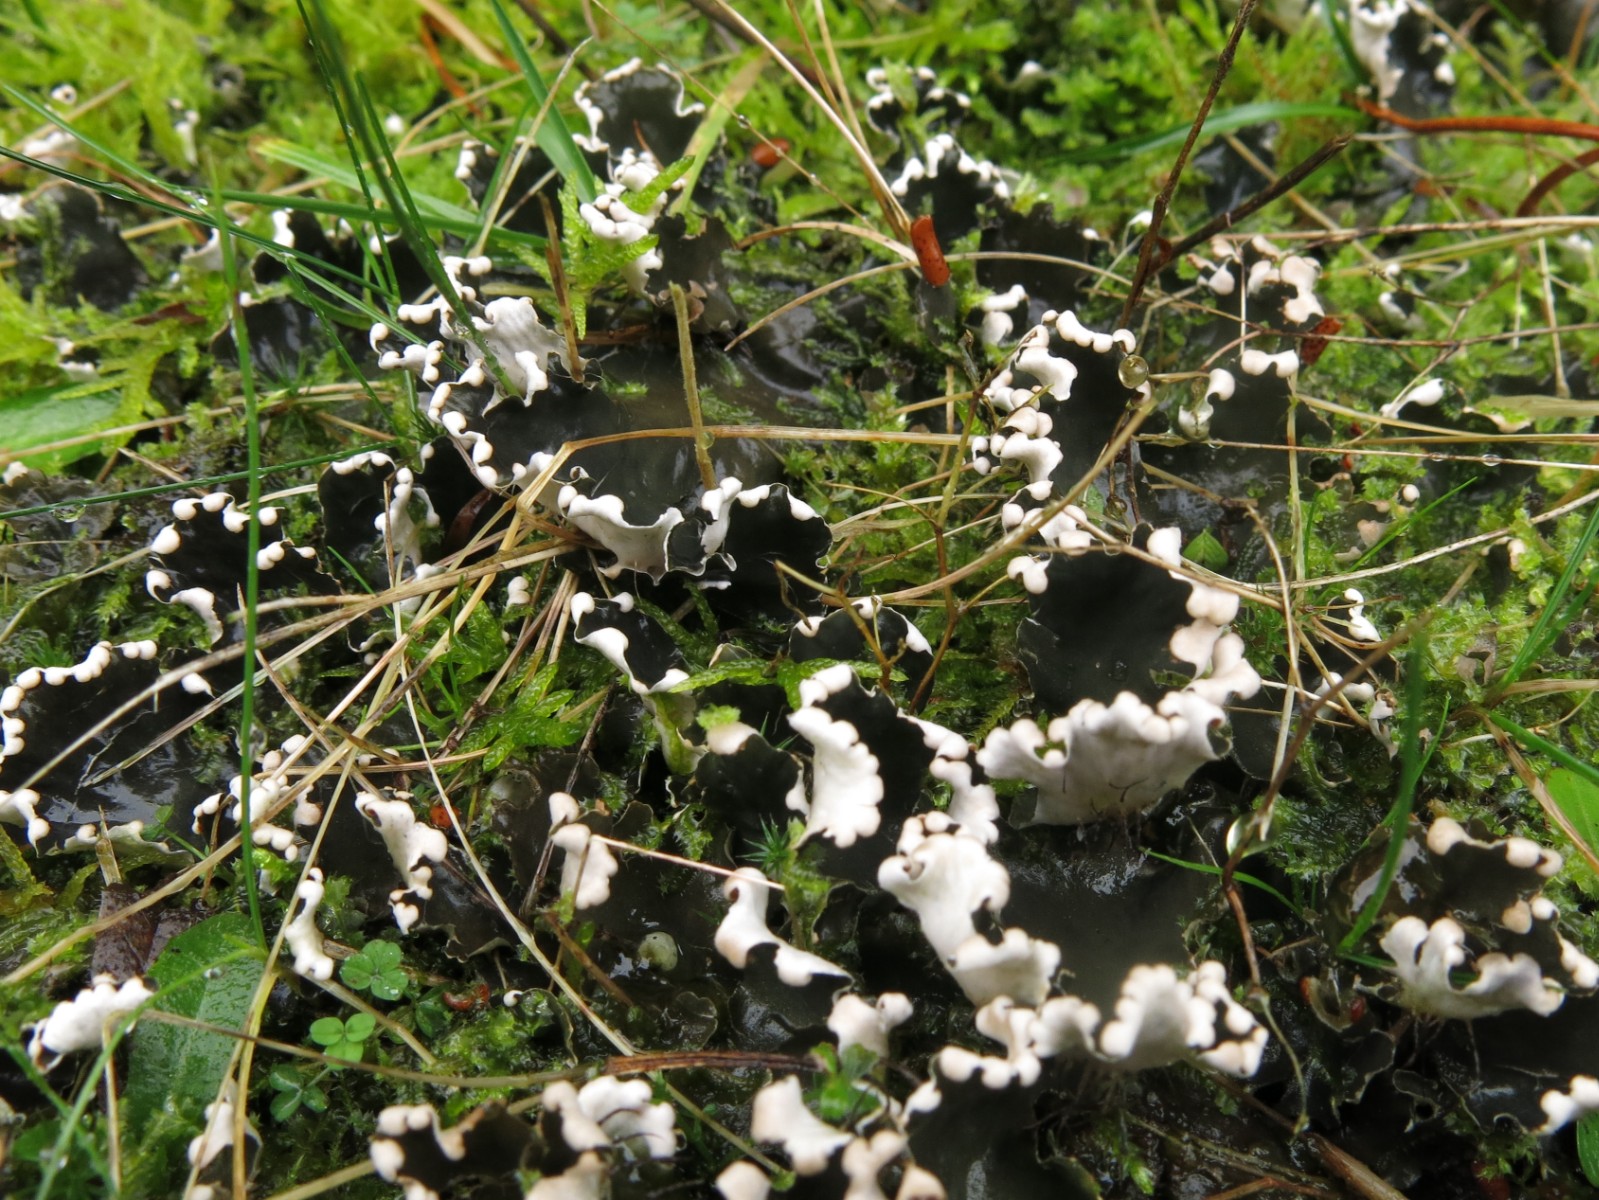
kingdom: Fungi
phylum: Ascomycota
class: Lecanoromycetes
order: Peltigerales
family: Peltigeraceae
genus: Peltigera
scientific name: Peltigera hymenina
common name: hinde-skjoldlav
